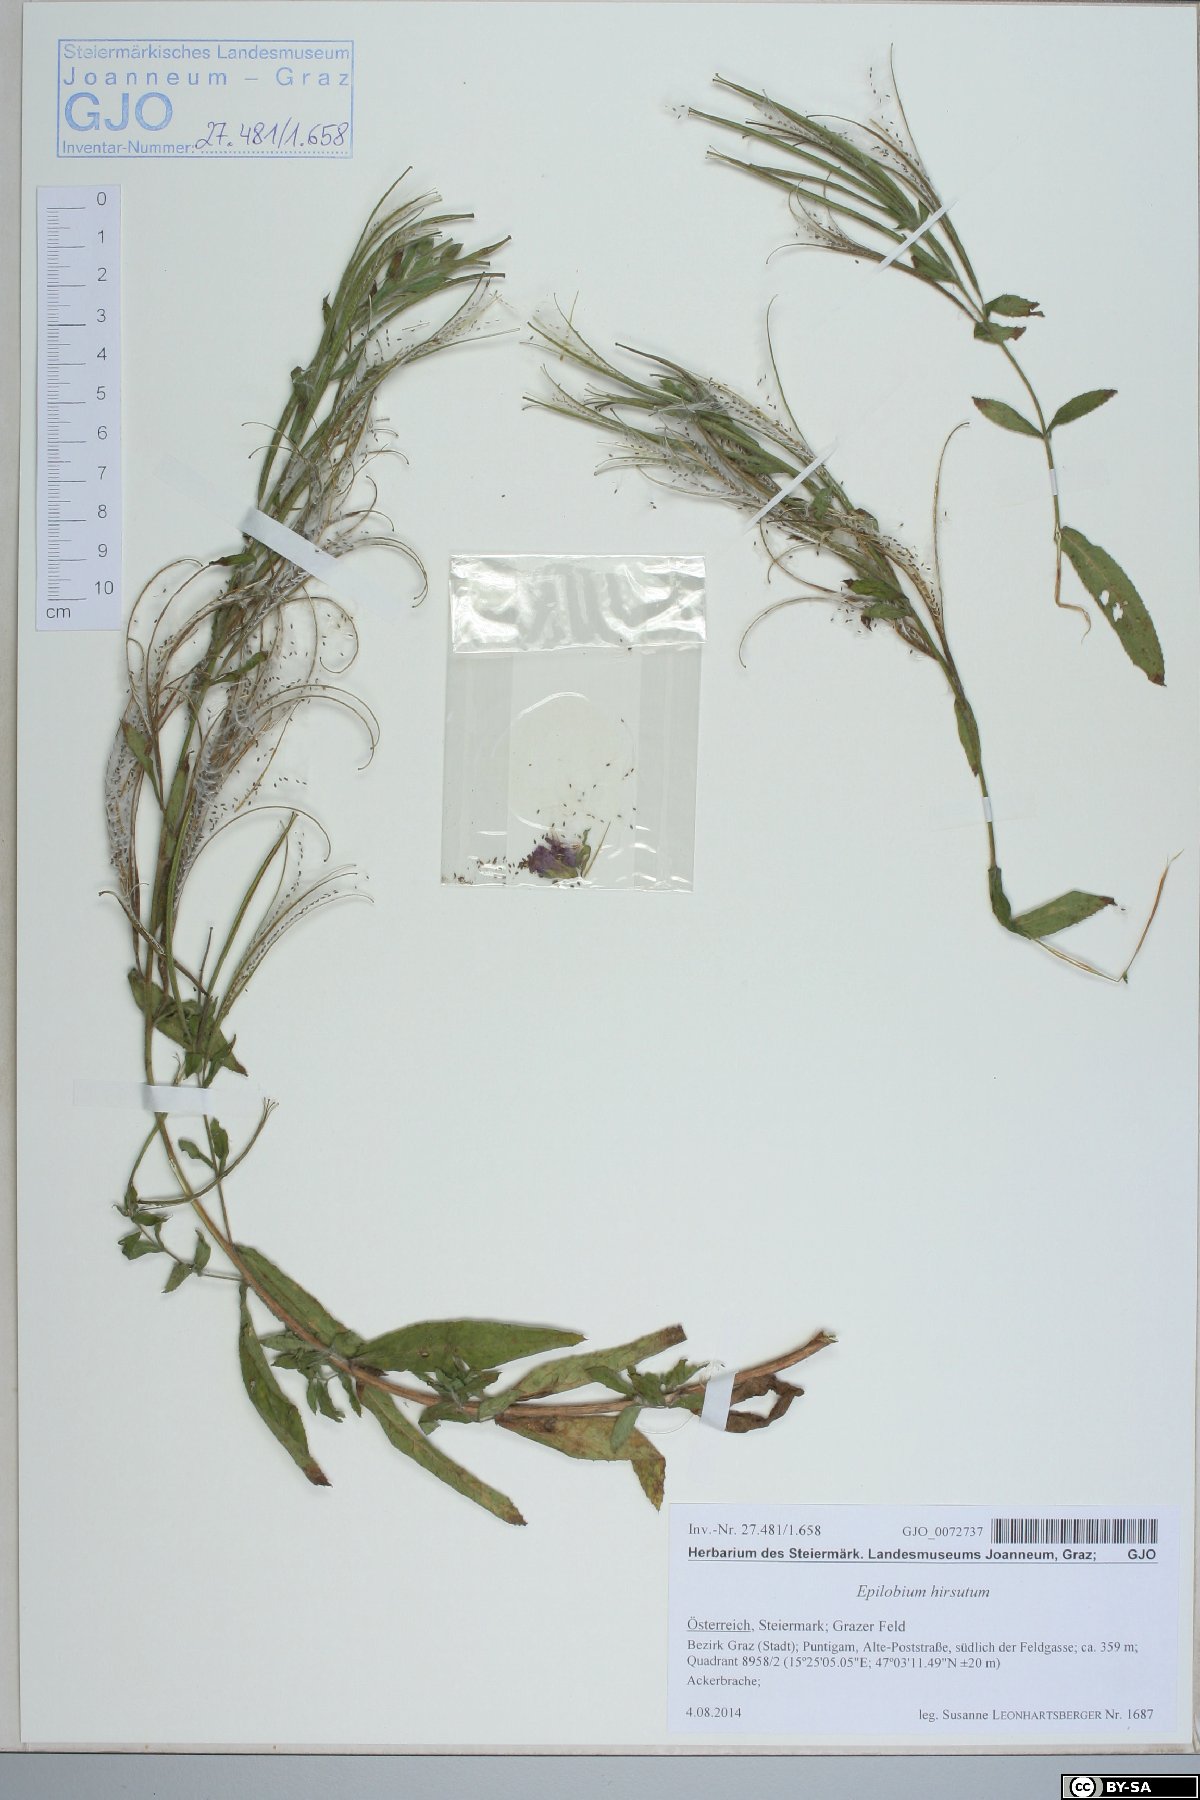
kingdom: Plantae
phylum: Tracheophyta
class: Magnoliopsida
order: Myrtales
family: Onagraceae
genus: Epilobium
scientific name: Epilobium hirsutum
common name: Great willowherb
